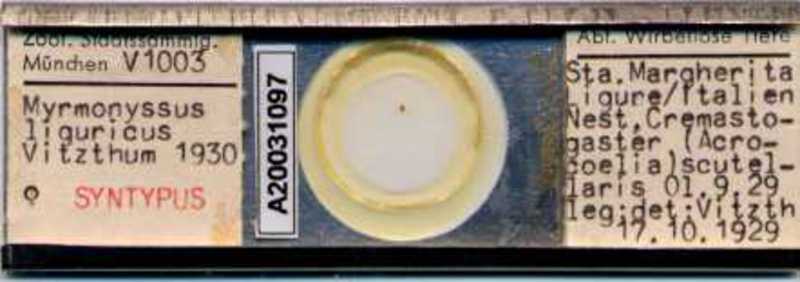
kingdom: Animalia
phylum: Arthropoda
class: Arachnida
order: Mesostigmata
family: Laelapidae
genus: Myrmozercon
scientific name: Myrmozercon liguricus
